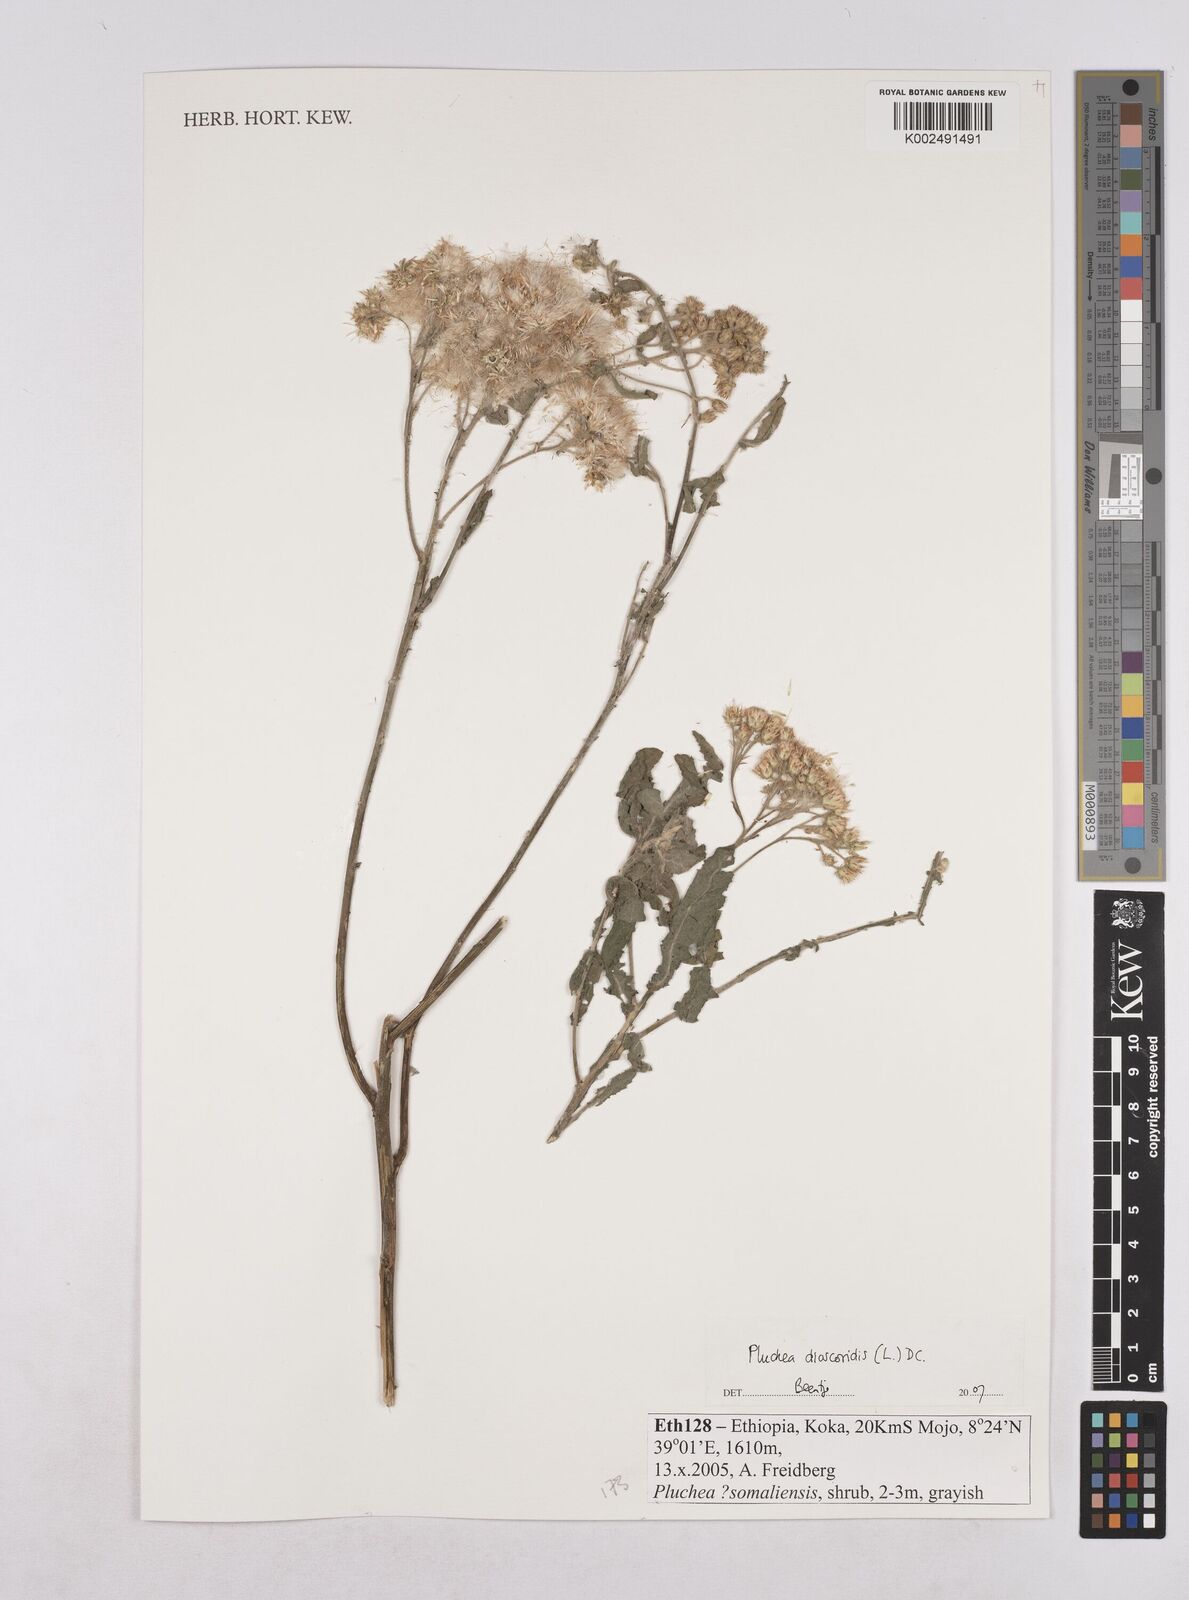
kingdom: Plantae
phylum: Tracheophyta
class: Magnoliopsida
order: Asterales
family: Asteraceae
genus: Pluchea
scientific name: Pluchea dioscoridis
